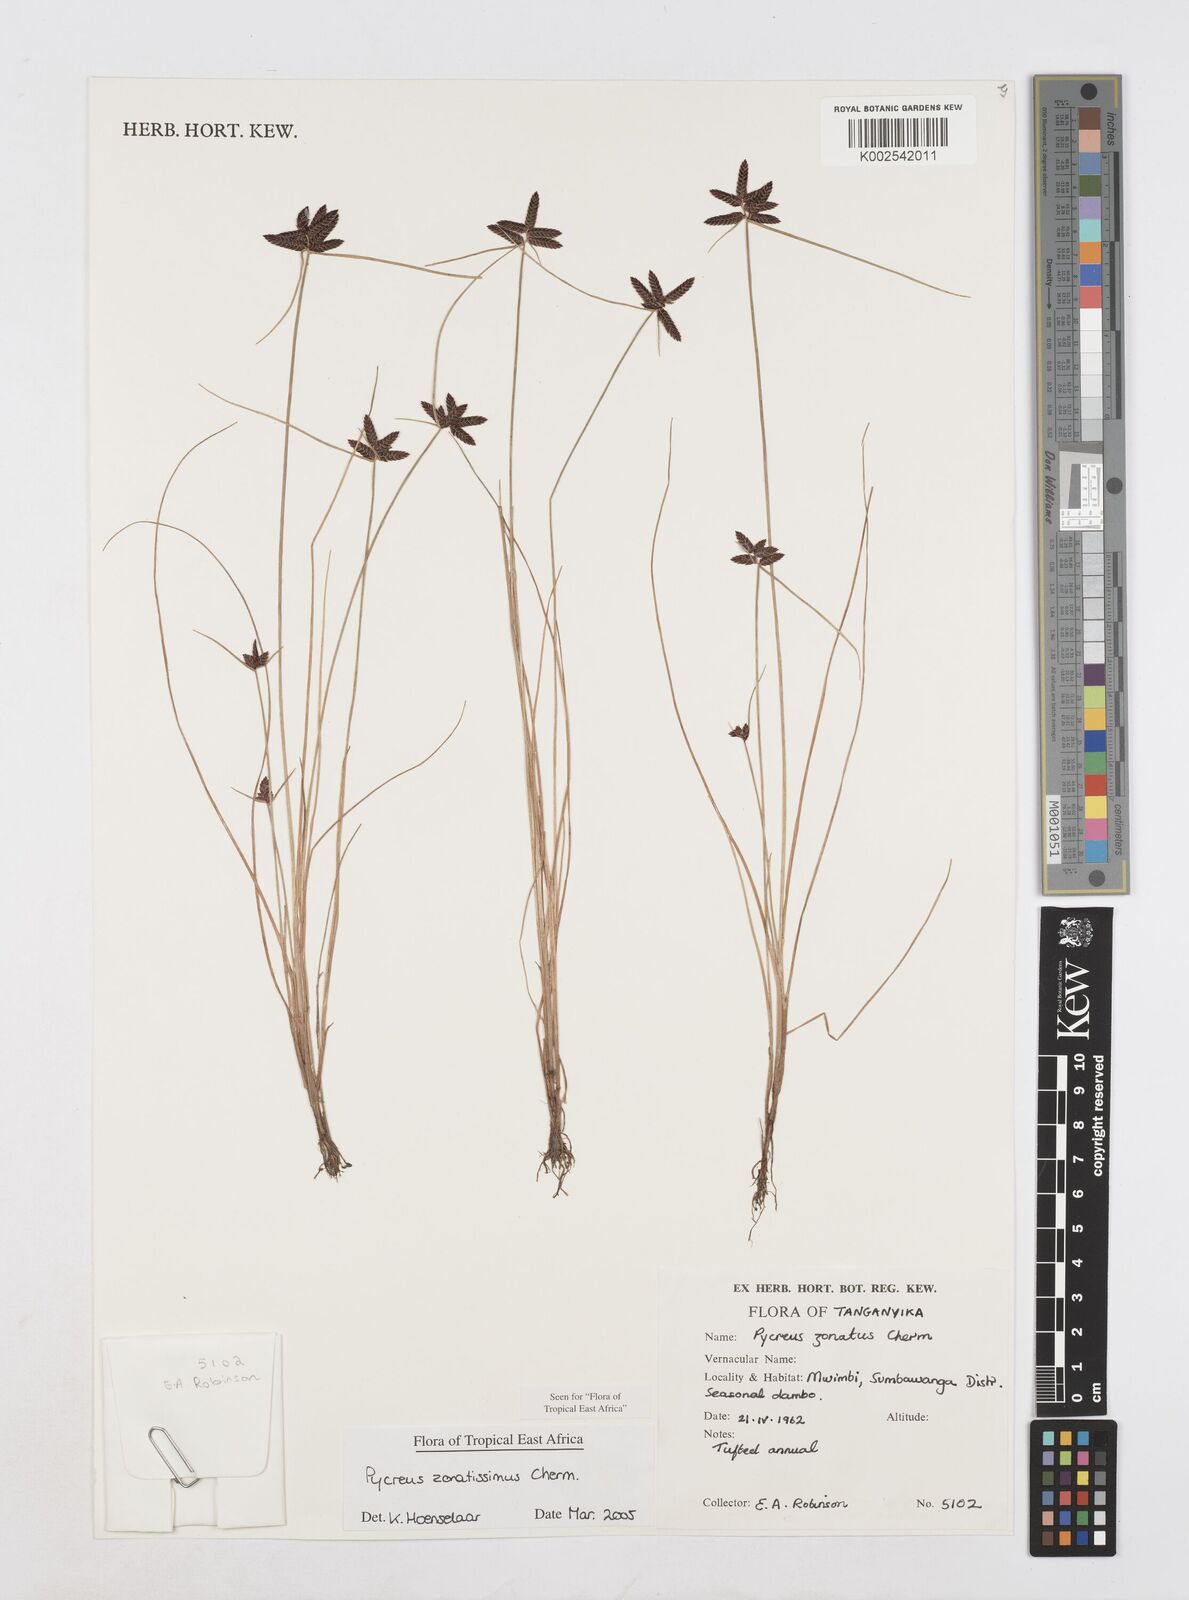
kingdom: Plantae
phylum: Tracheophyta
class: Liliopsida
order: Poales
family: Cyperaceae
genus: Cyperus
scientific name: Cyperus zonatissimus
